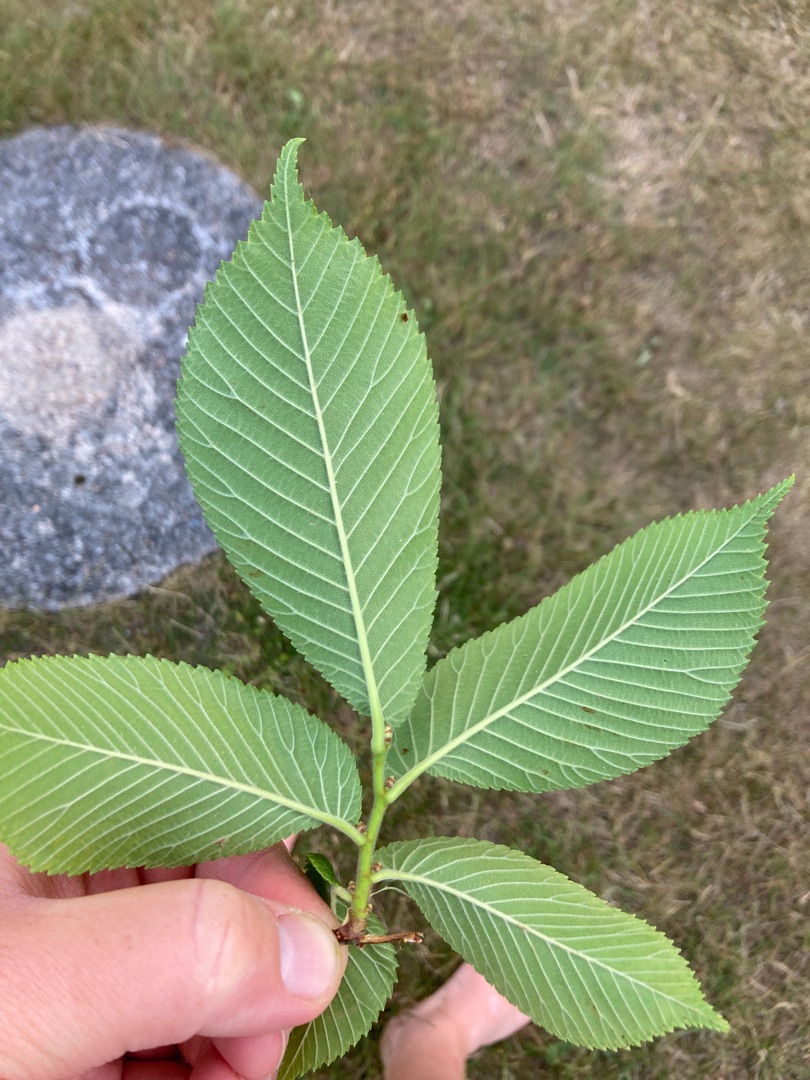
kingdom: Plantae
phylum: Tracheophyta
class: Magnoliopsida
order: Rosales
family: Ulmaceae
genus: Ulmus
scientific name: Ulmus hollandica
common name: Hollandsk elm
